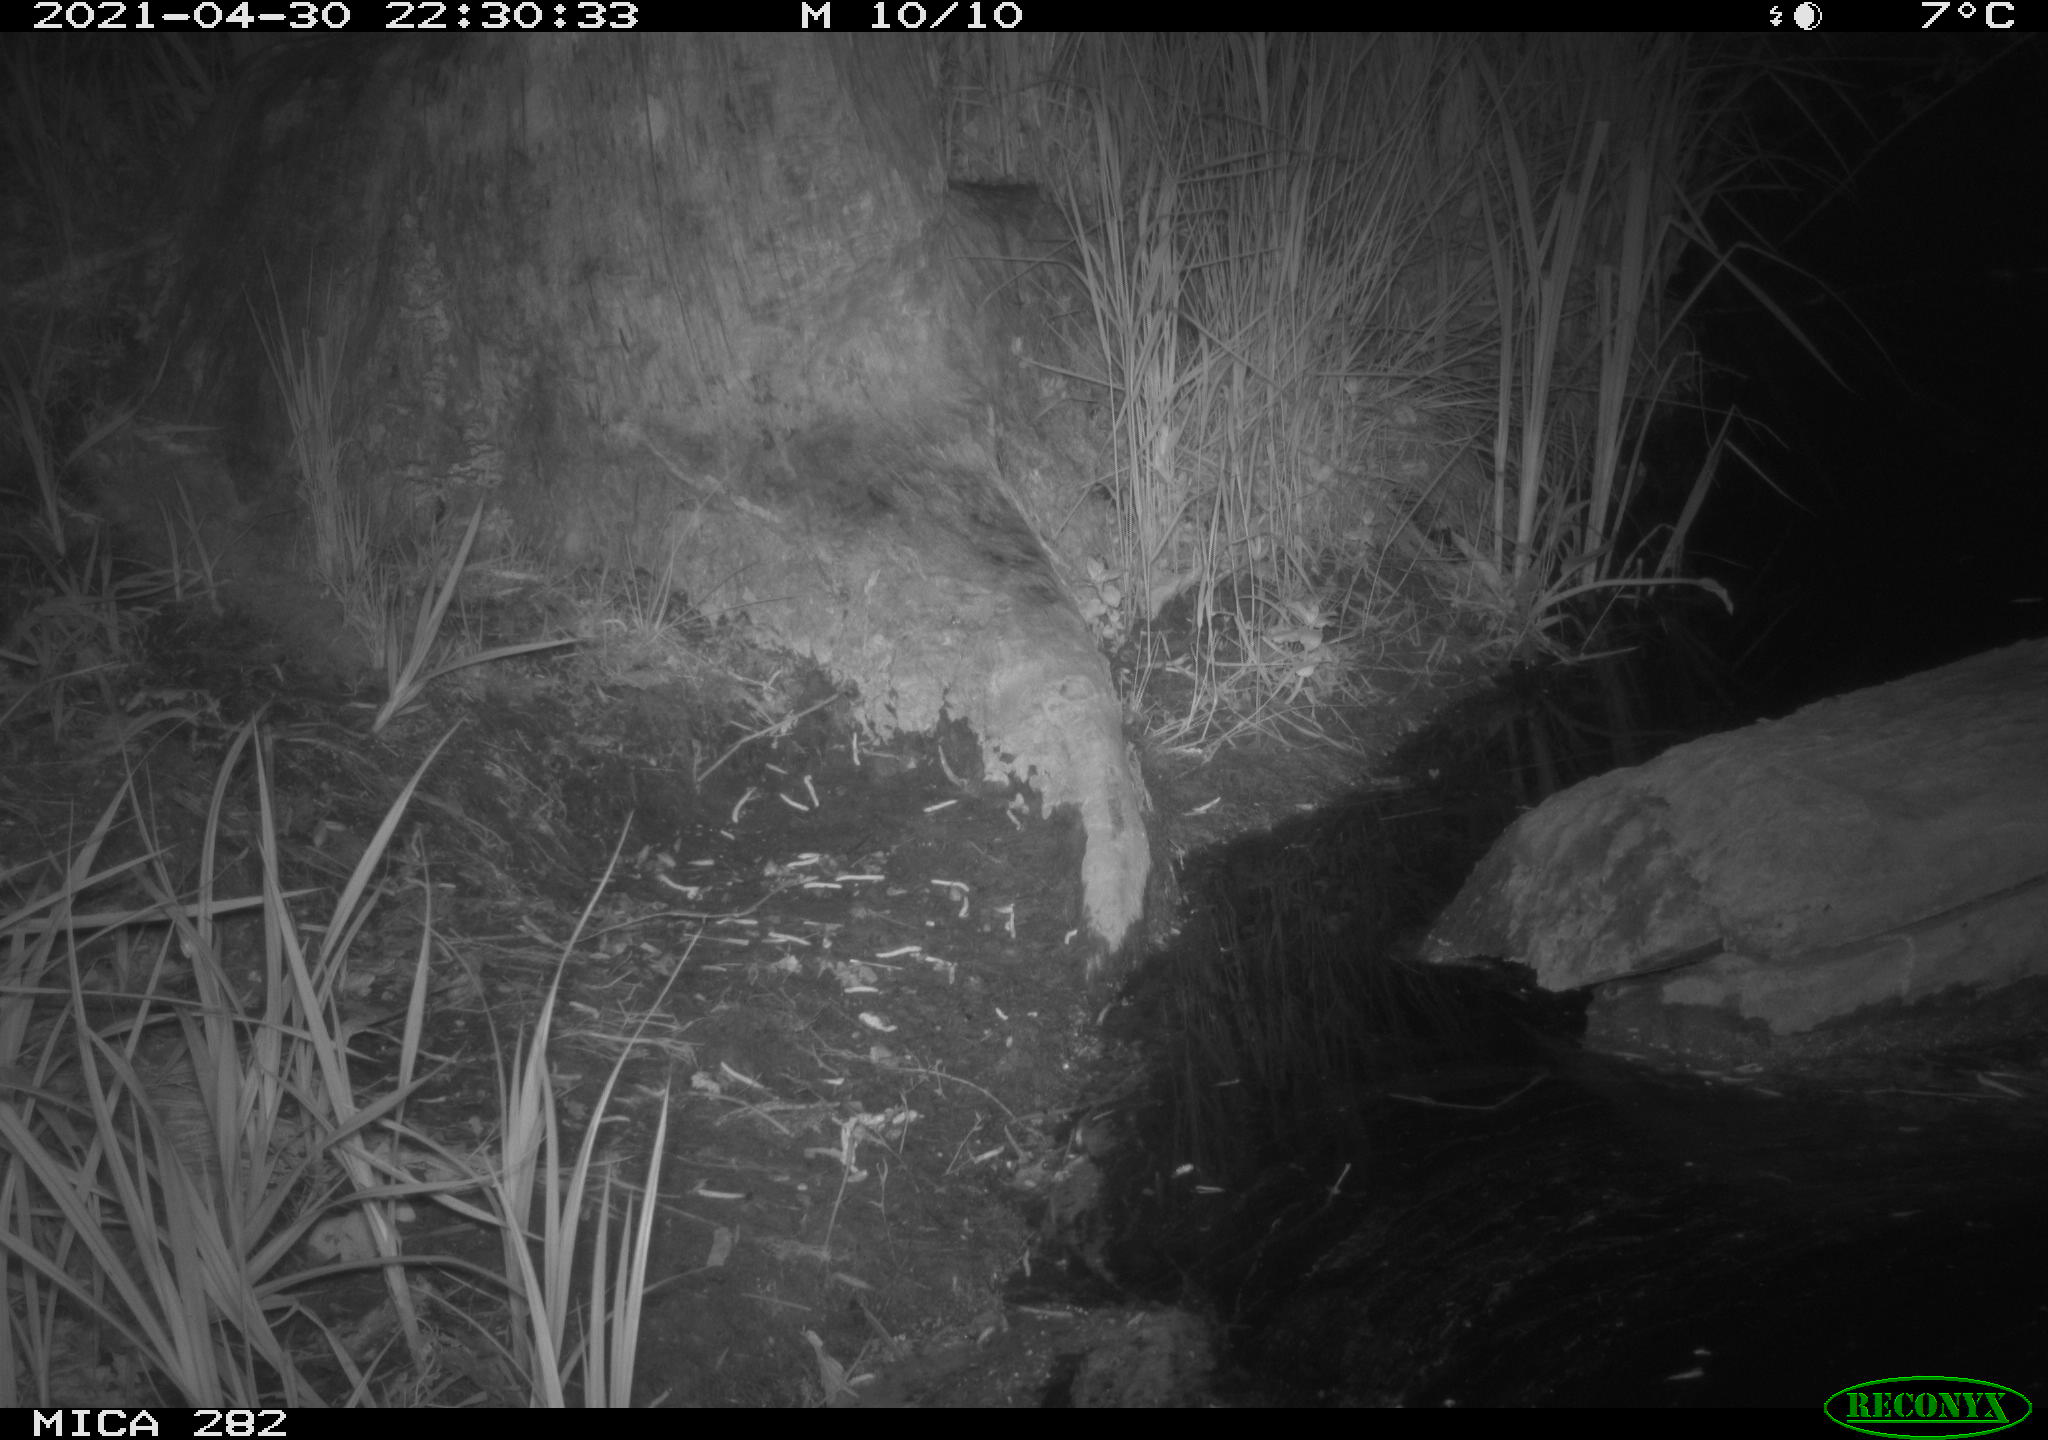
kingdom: Animalia
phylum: Chordata
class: Mammalia
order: Carnivora
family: Mustelidae
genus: Mustela
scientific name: Mustela putorius
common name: European polecat
